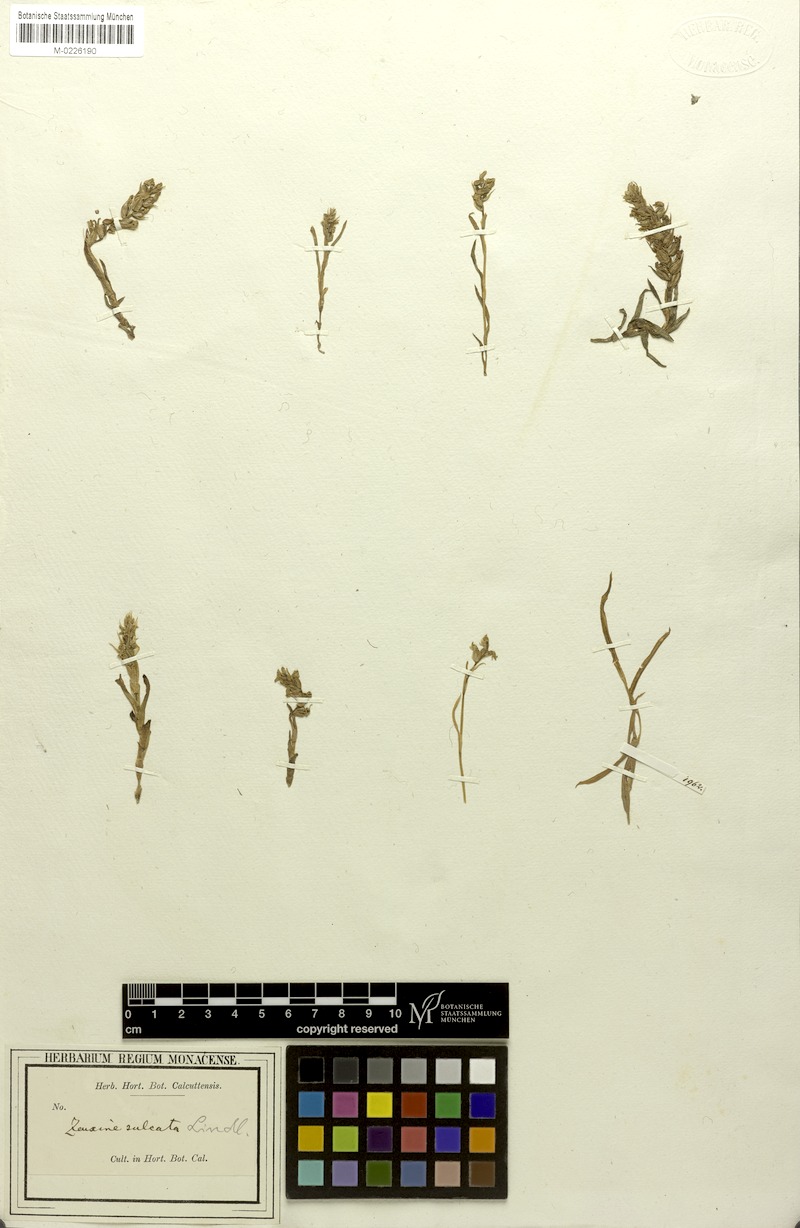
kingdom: Plantae
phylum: Tracheophyta
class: Liliopsida
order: Asparagales
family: Orchidaceae
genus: Zeuxine
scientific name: Zeuxine strateumatica
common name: Soldier's orchid
